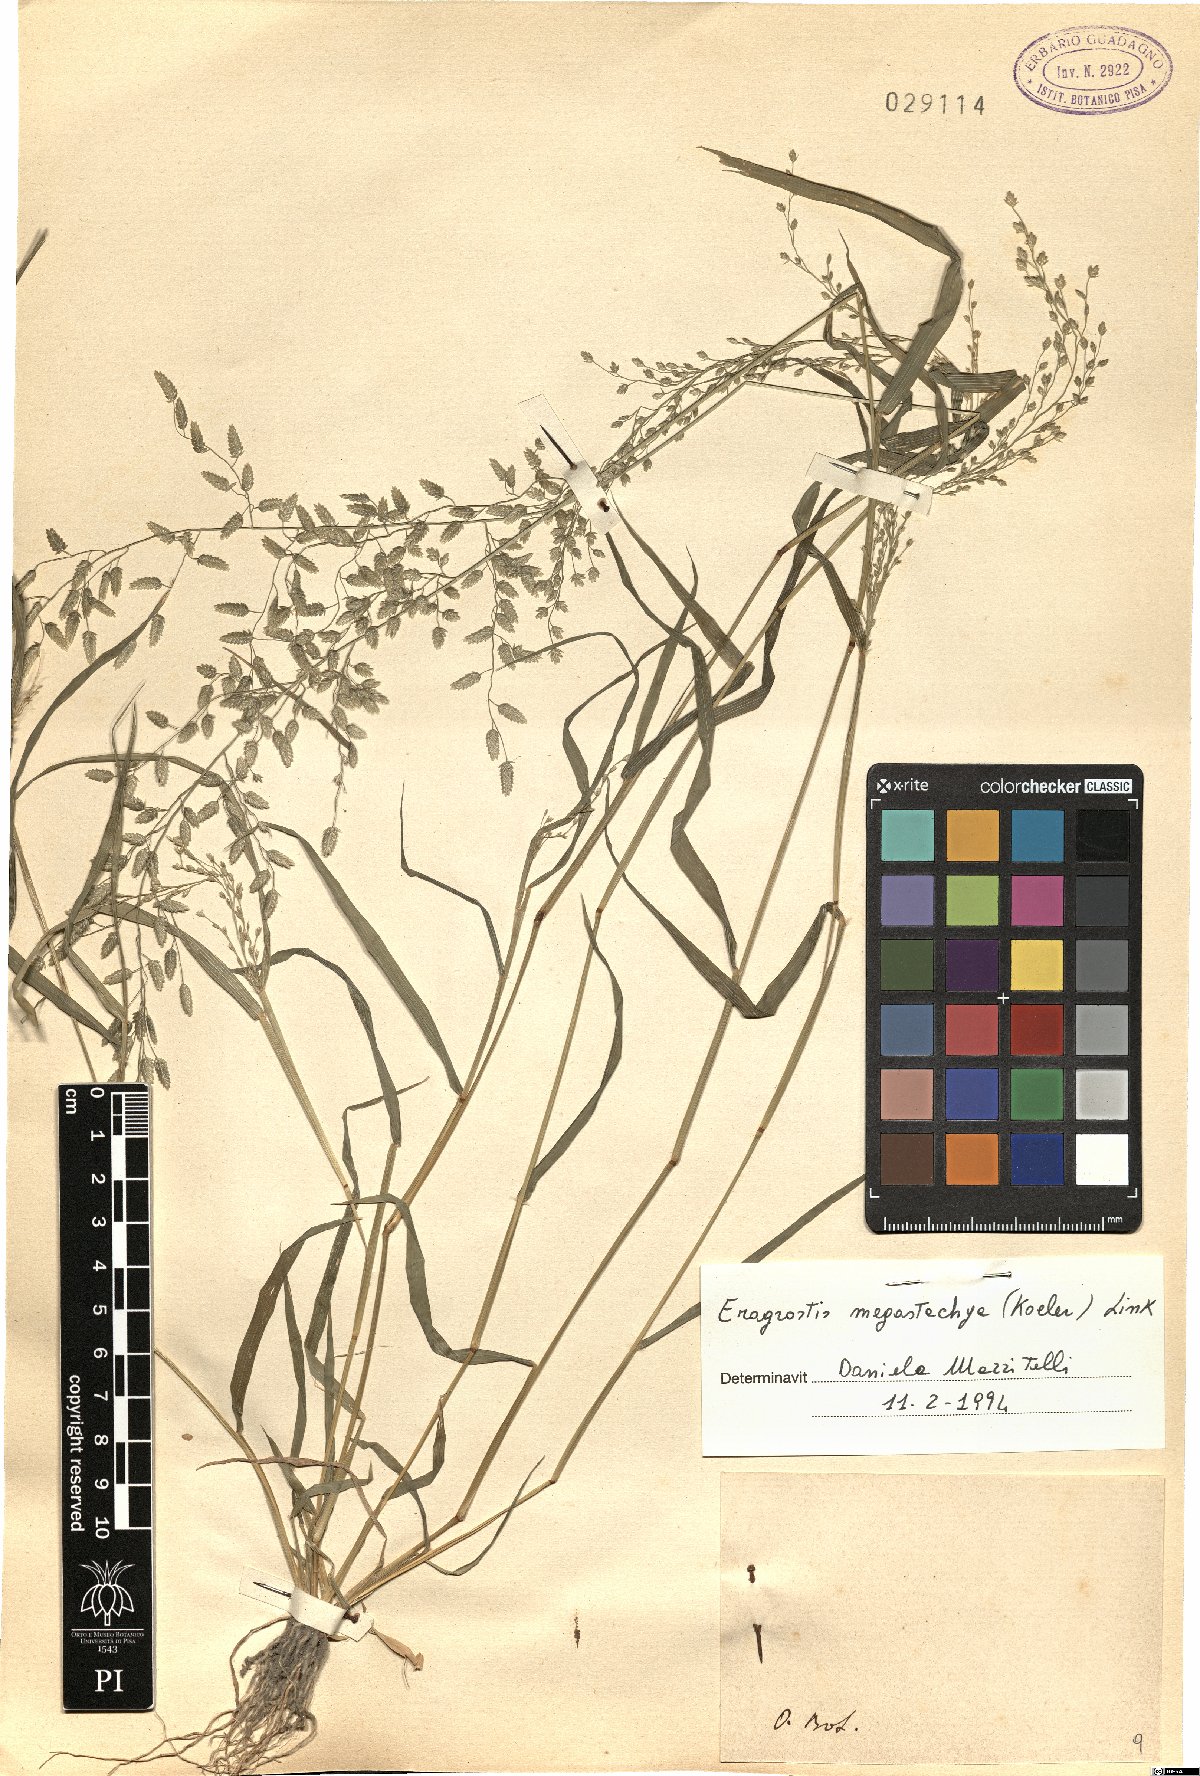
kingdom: Plantae
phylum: Tracheophyta
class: Liliopsida
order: Poales
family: Poaceae
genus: Eragrostis
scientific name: Eragrostis cilianensis
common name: Stinkgrass
